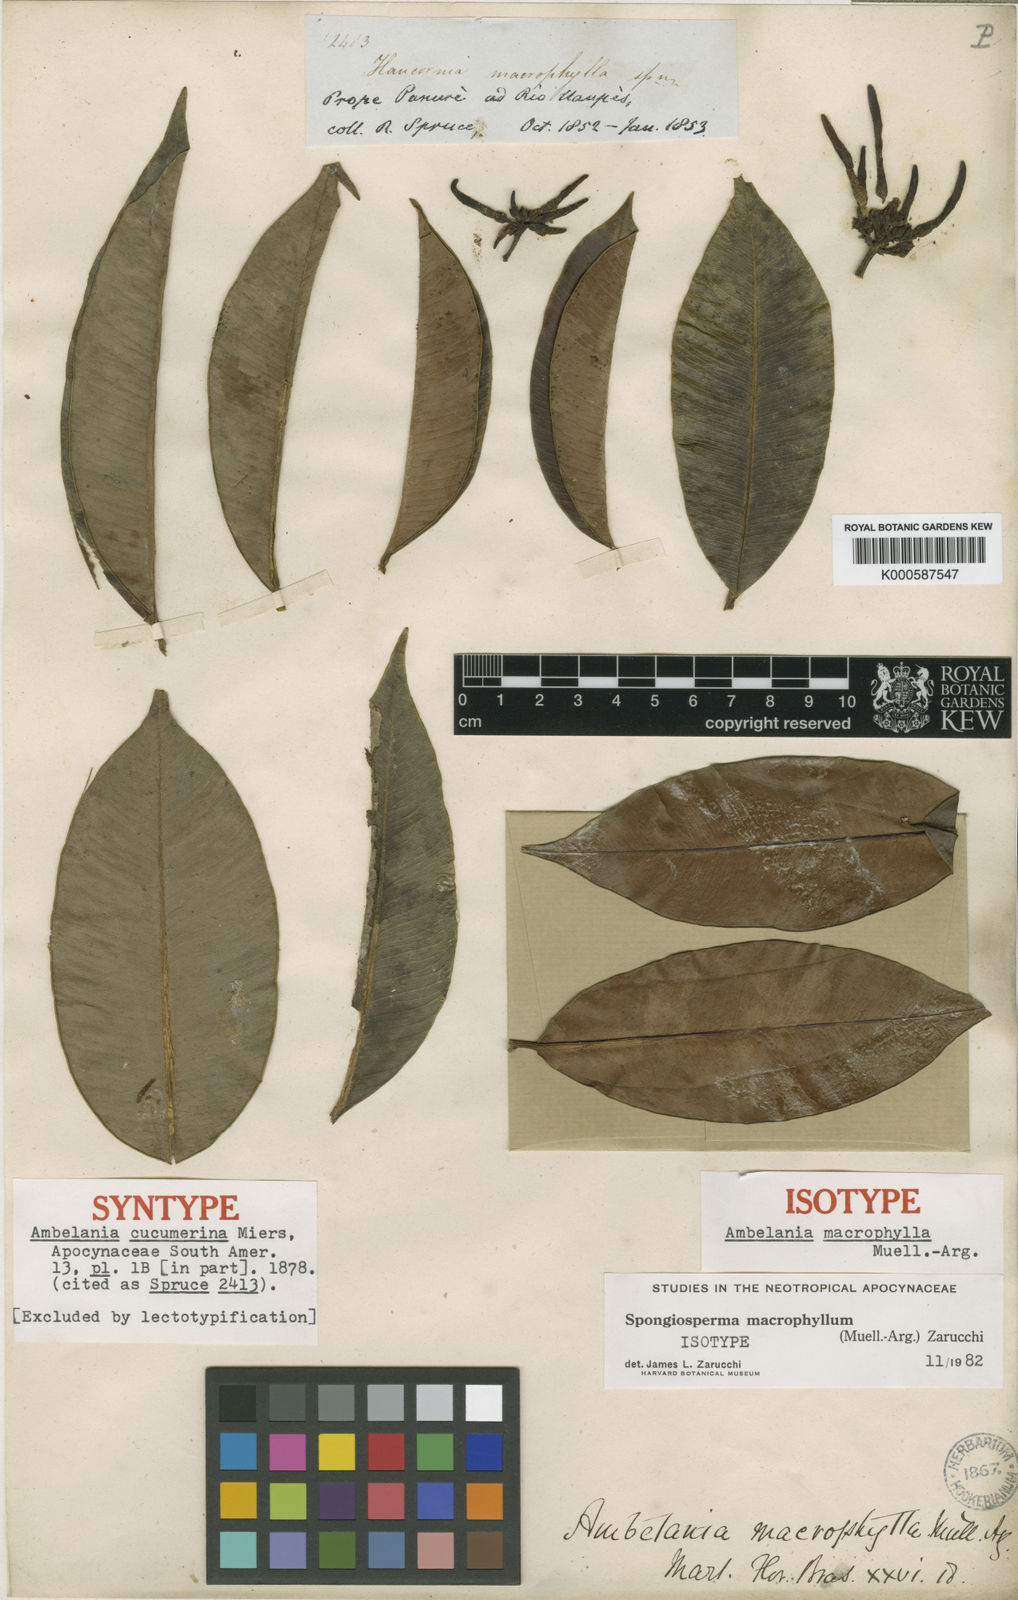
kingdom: Plantae
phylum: Tracheophyta
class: Magnoliopsida
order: Gentianales
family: Apocynaceae
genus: Ambelania
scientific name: Ambelania
